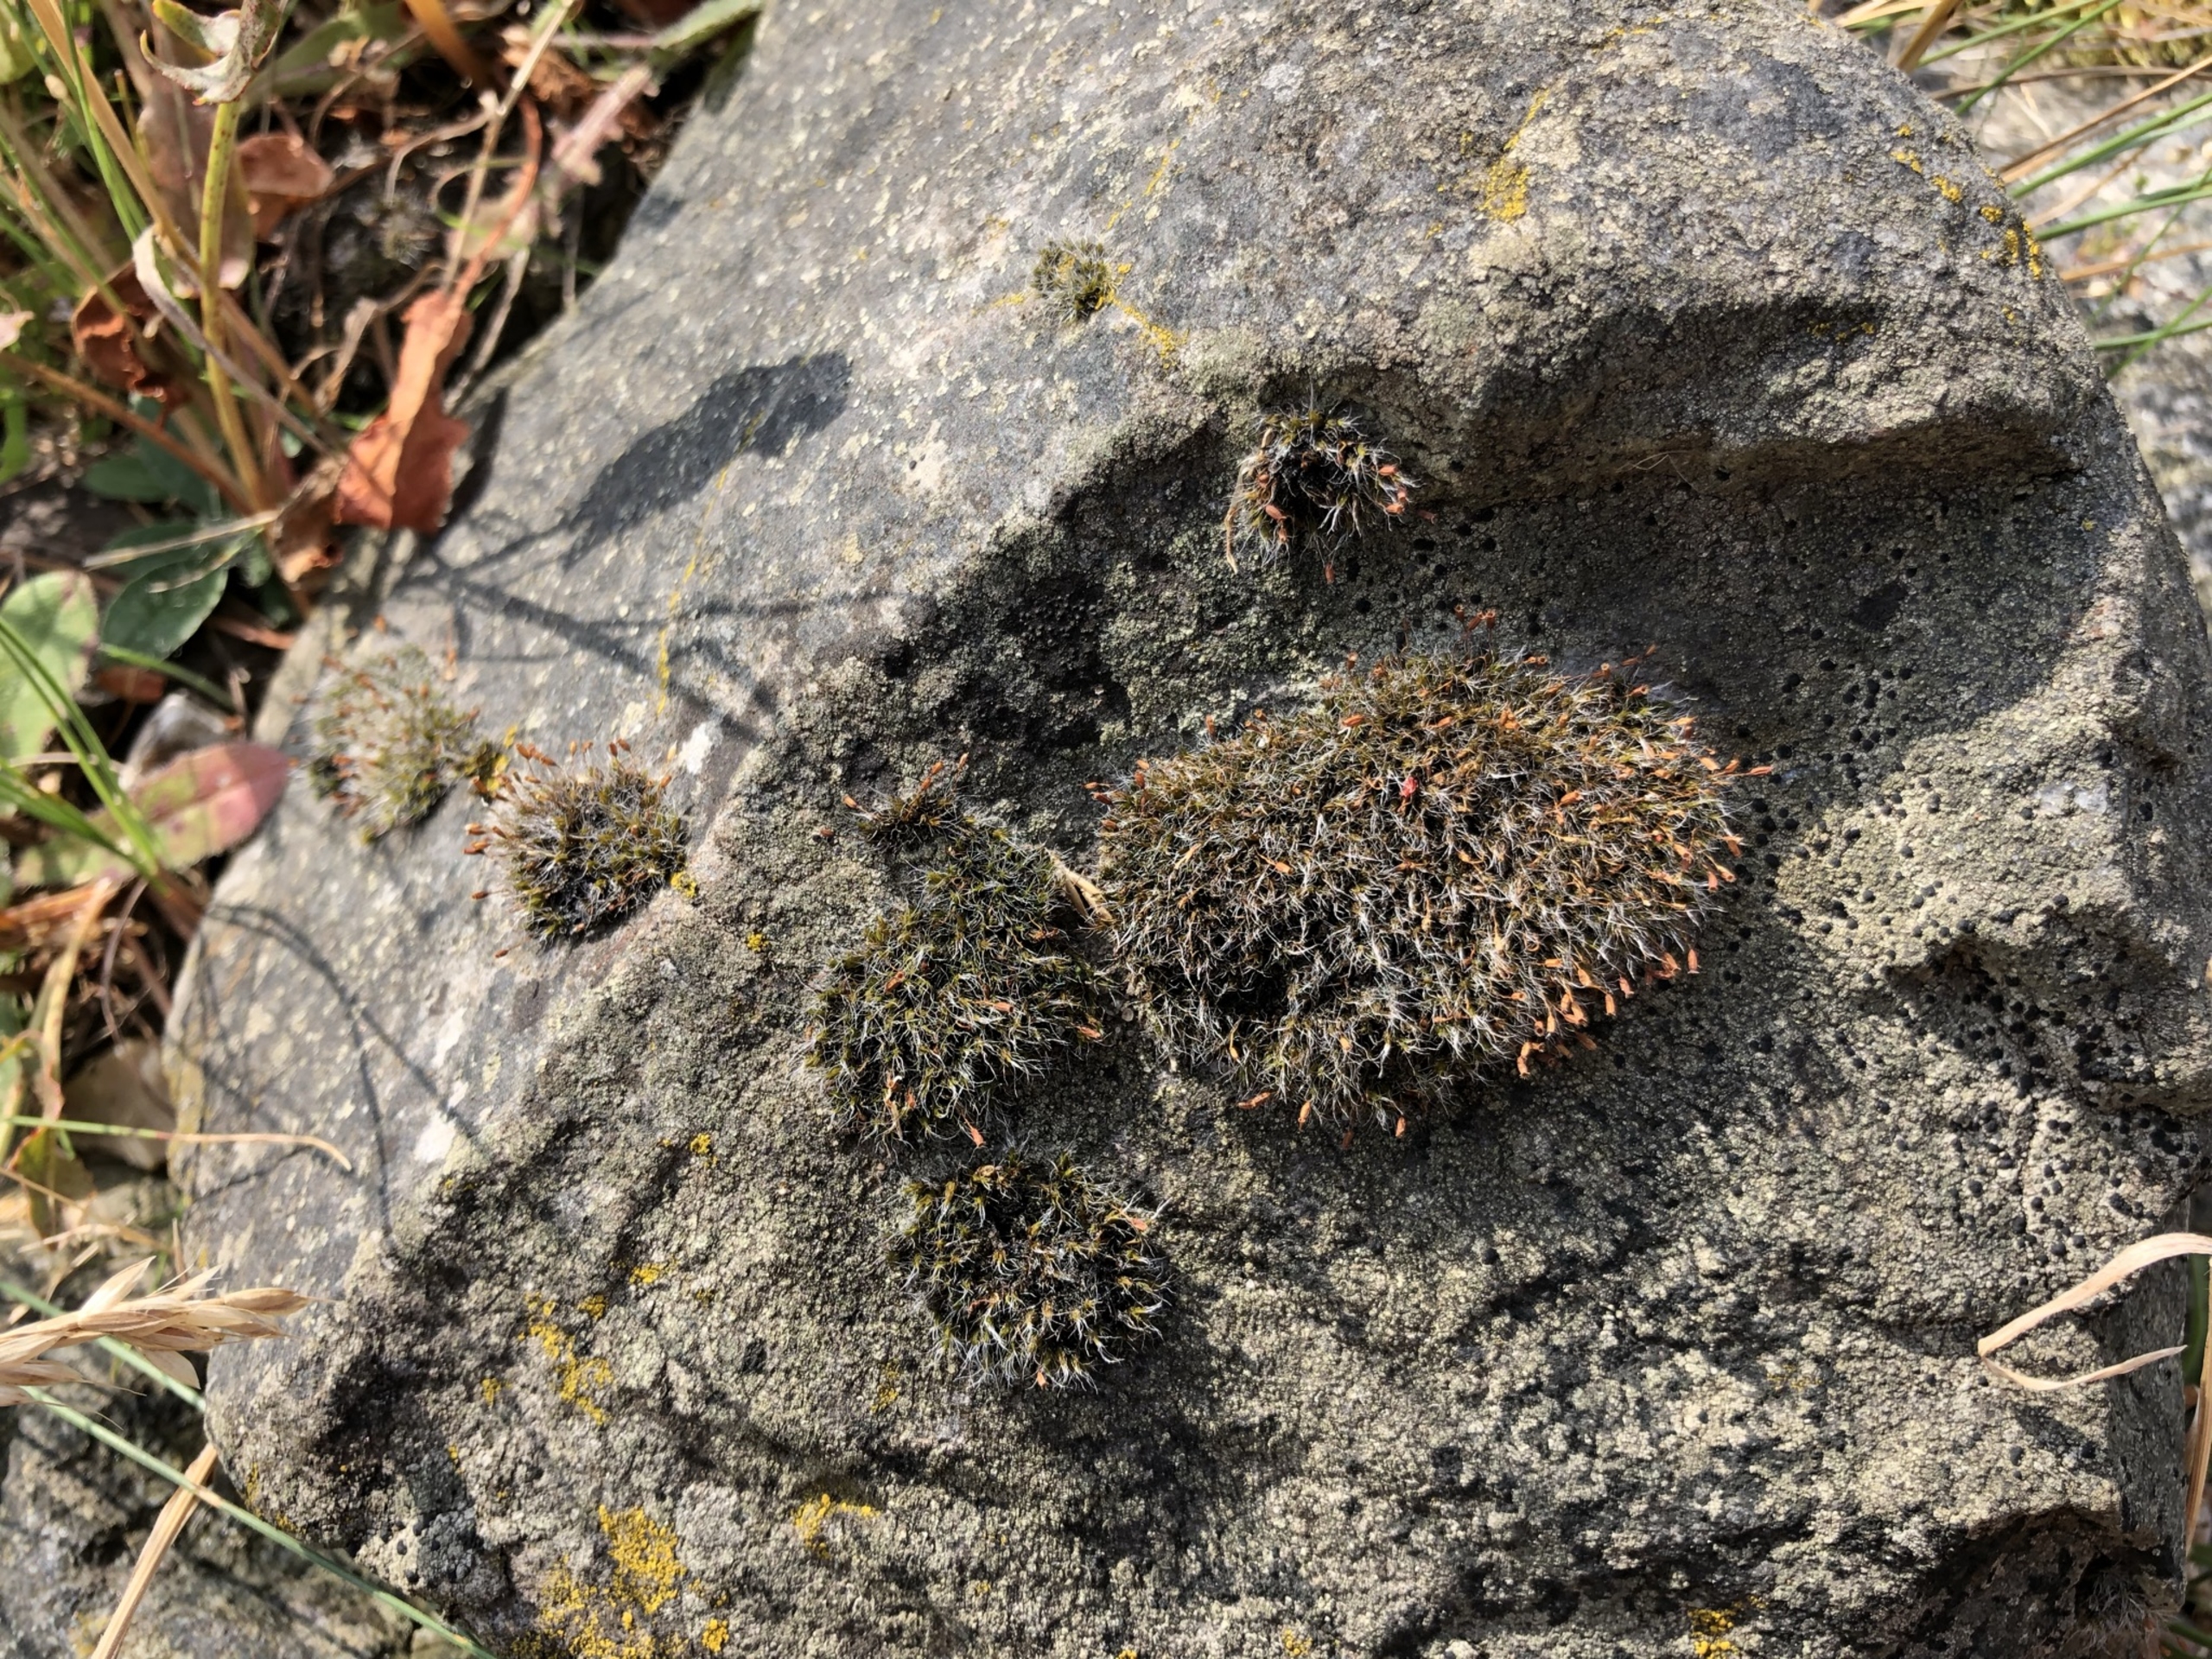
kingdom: Plantae
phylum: Bryophyta
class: Bryopsida
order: Grimmiales
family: Grimmiaceae
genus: Grimmia
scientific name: Grimmia pulvinata
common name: Pude-gråmos
